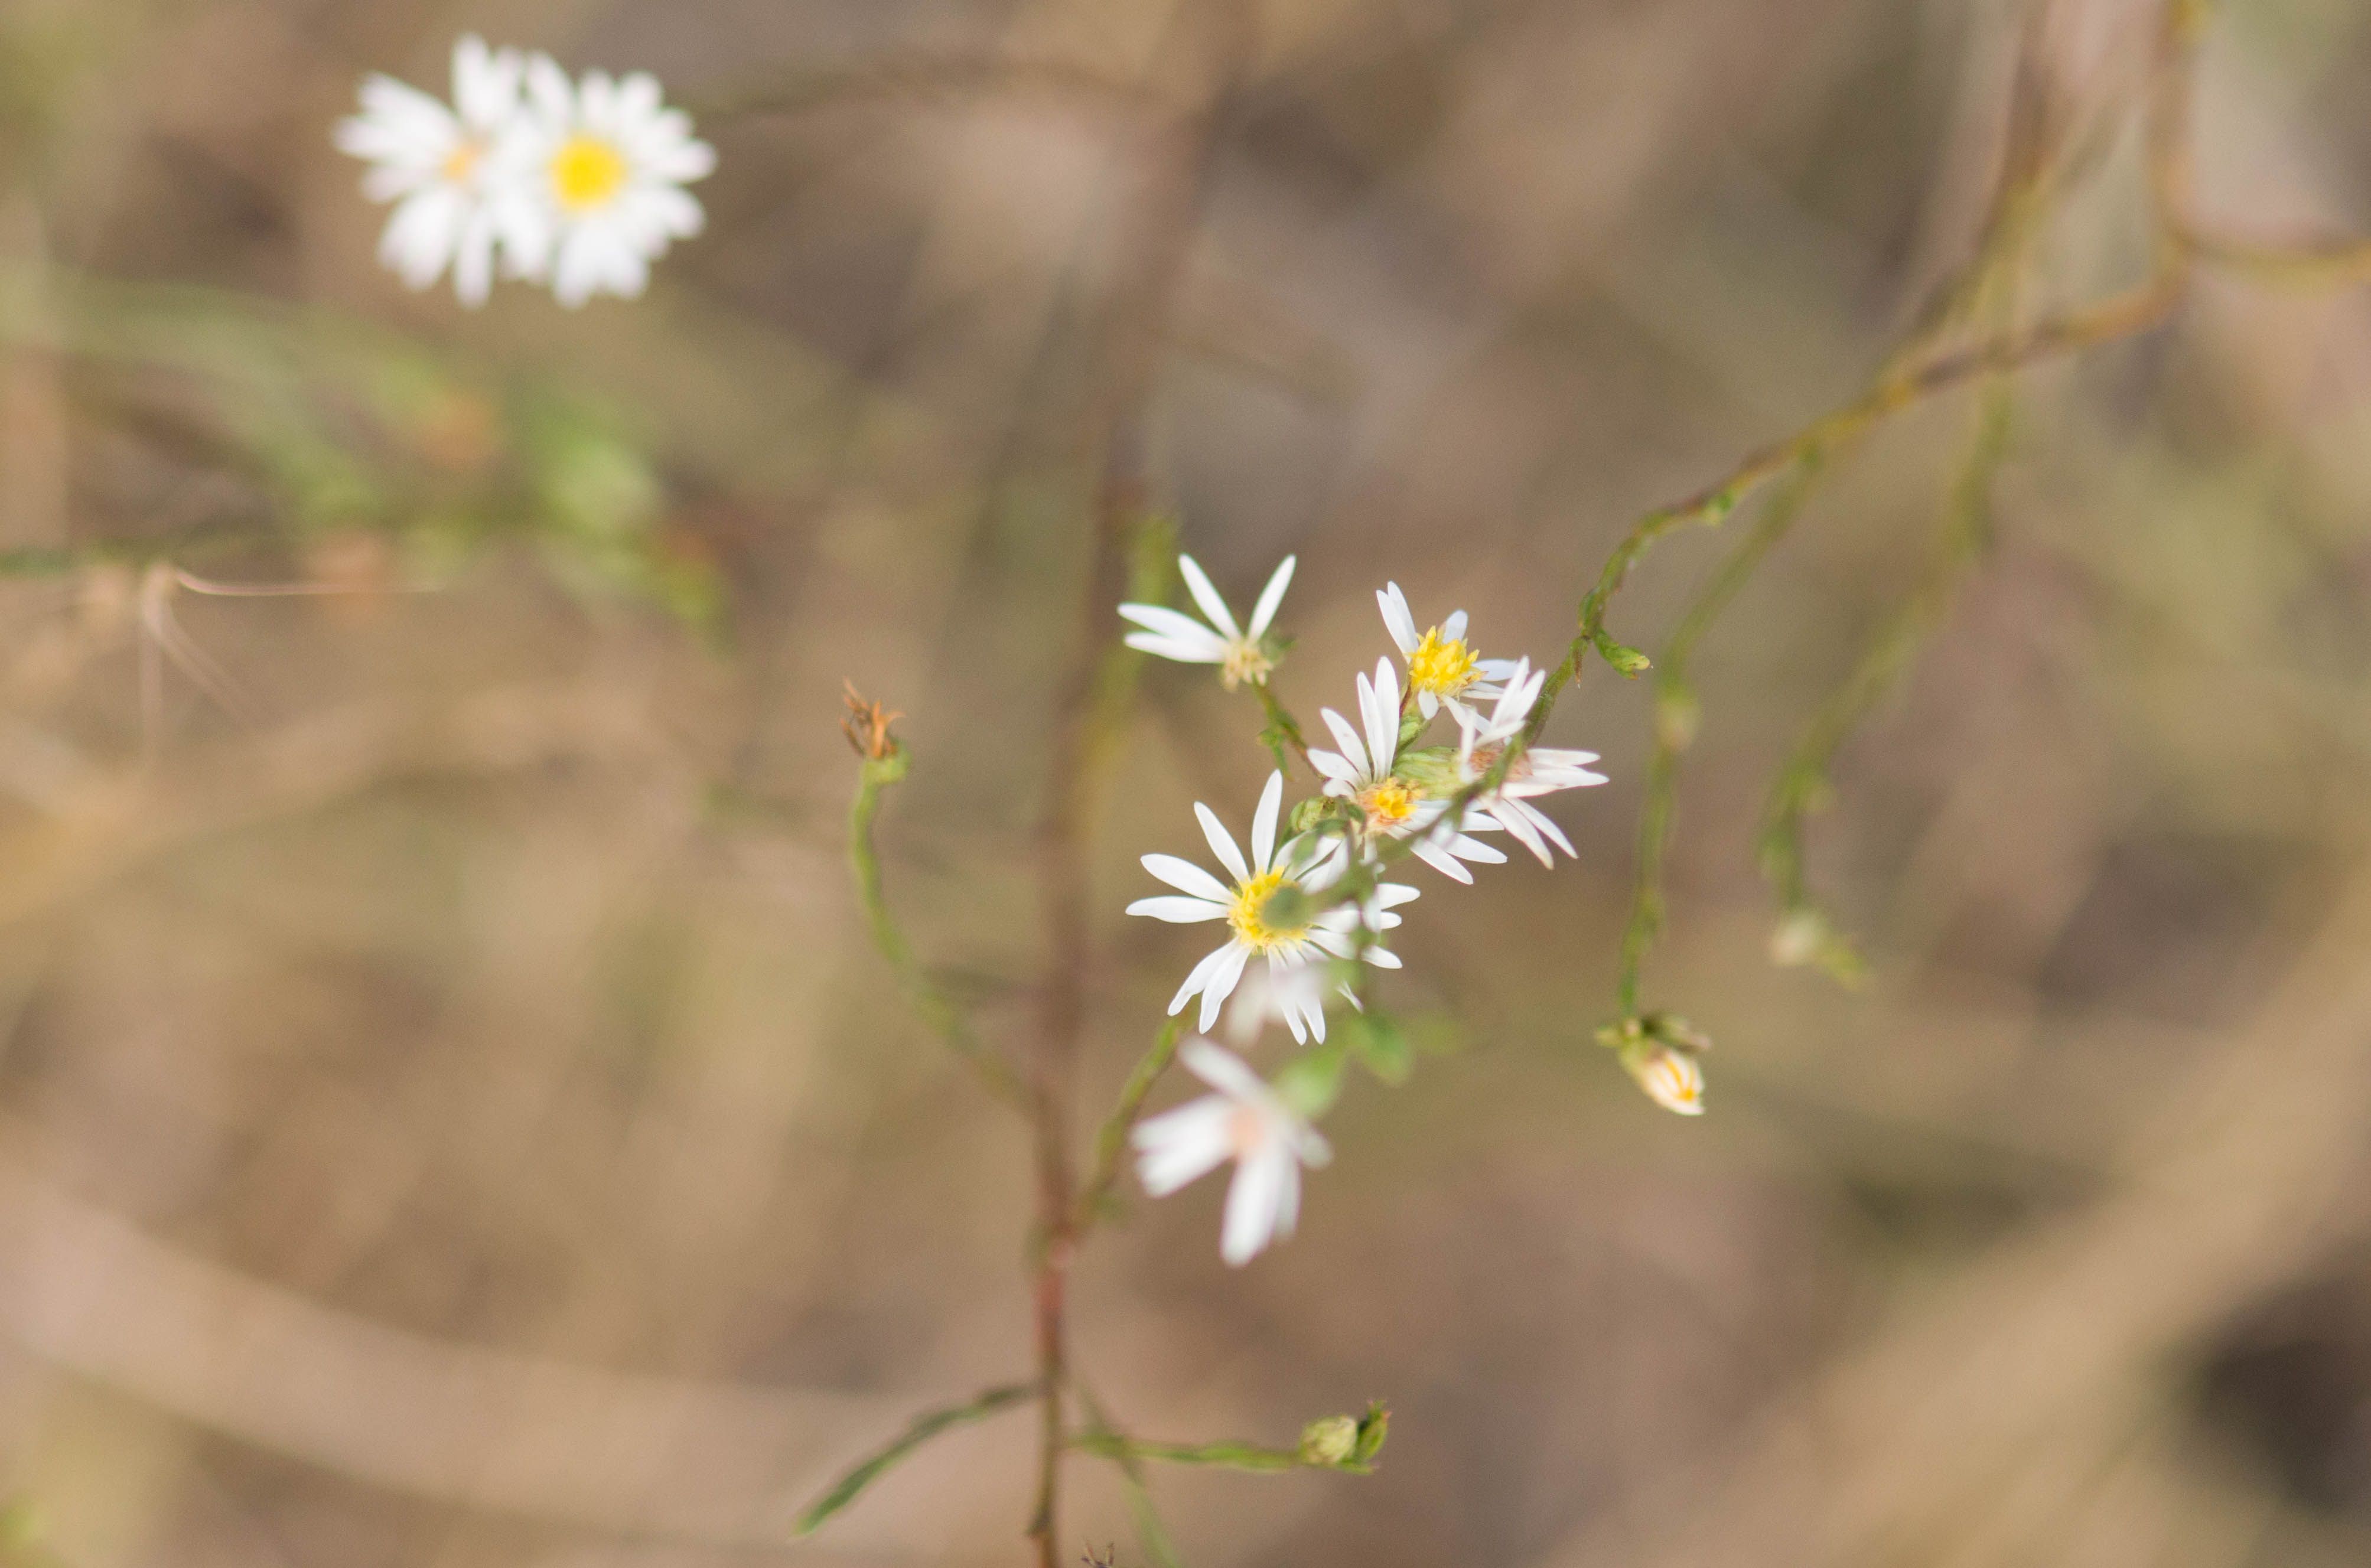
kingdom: Plantae
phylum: Tracheophyta
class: Magnoliopsida
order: Asterales
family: Asteraceae
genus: Symphyotrichum
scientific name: Symphyotrichum depauperatum
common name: Serpentine aster
